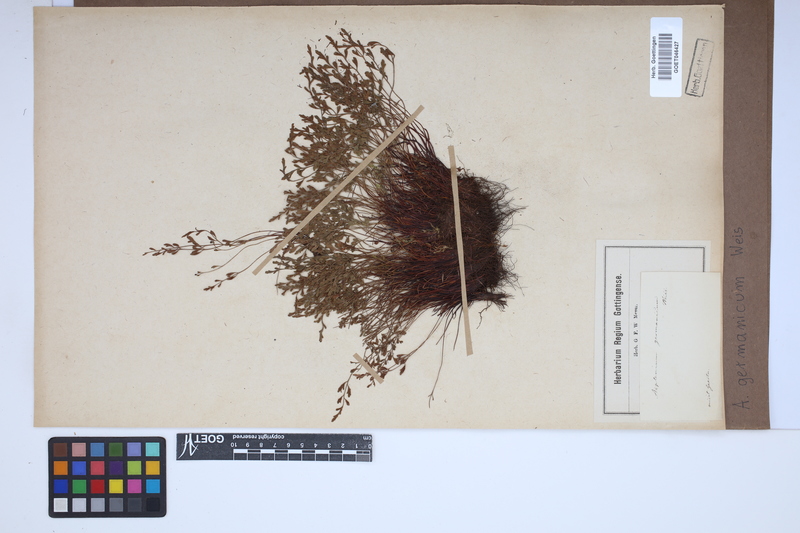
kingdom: Plantae
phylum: Tracheophyta
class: Polypodiopsida
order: Polypodiales
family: Aspleniaceae
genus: Asplenium
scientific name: Asplenium
